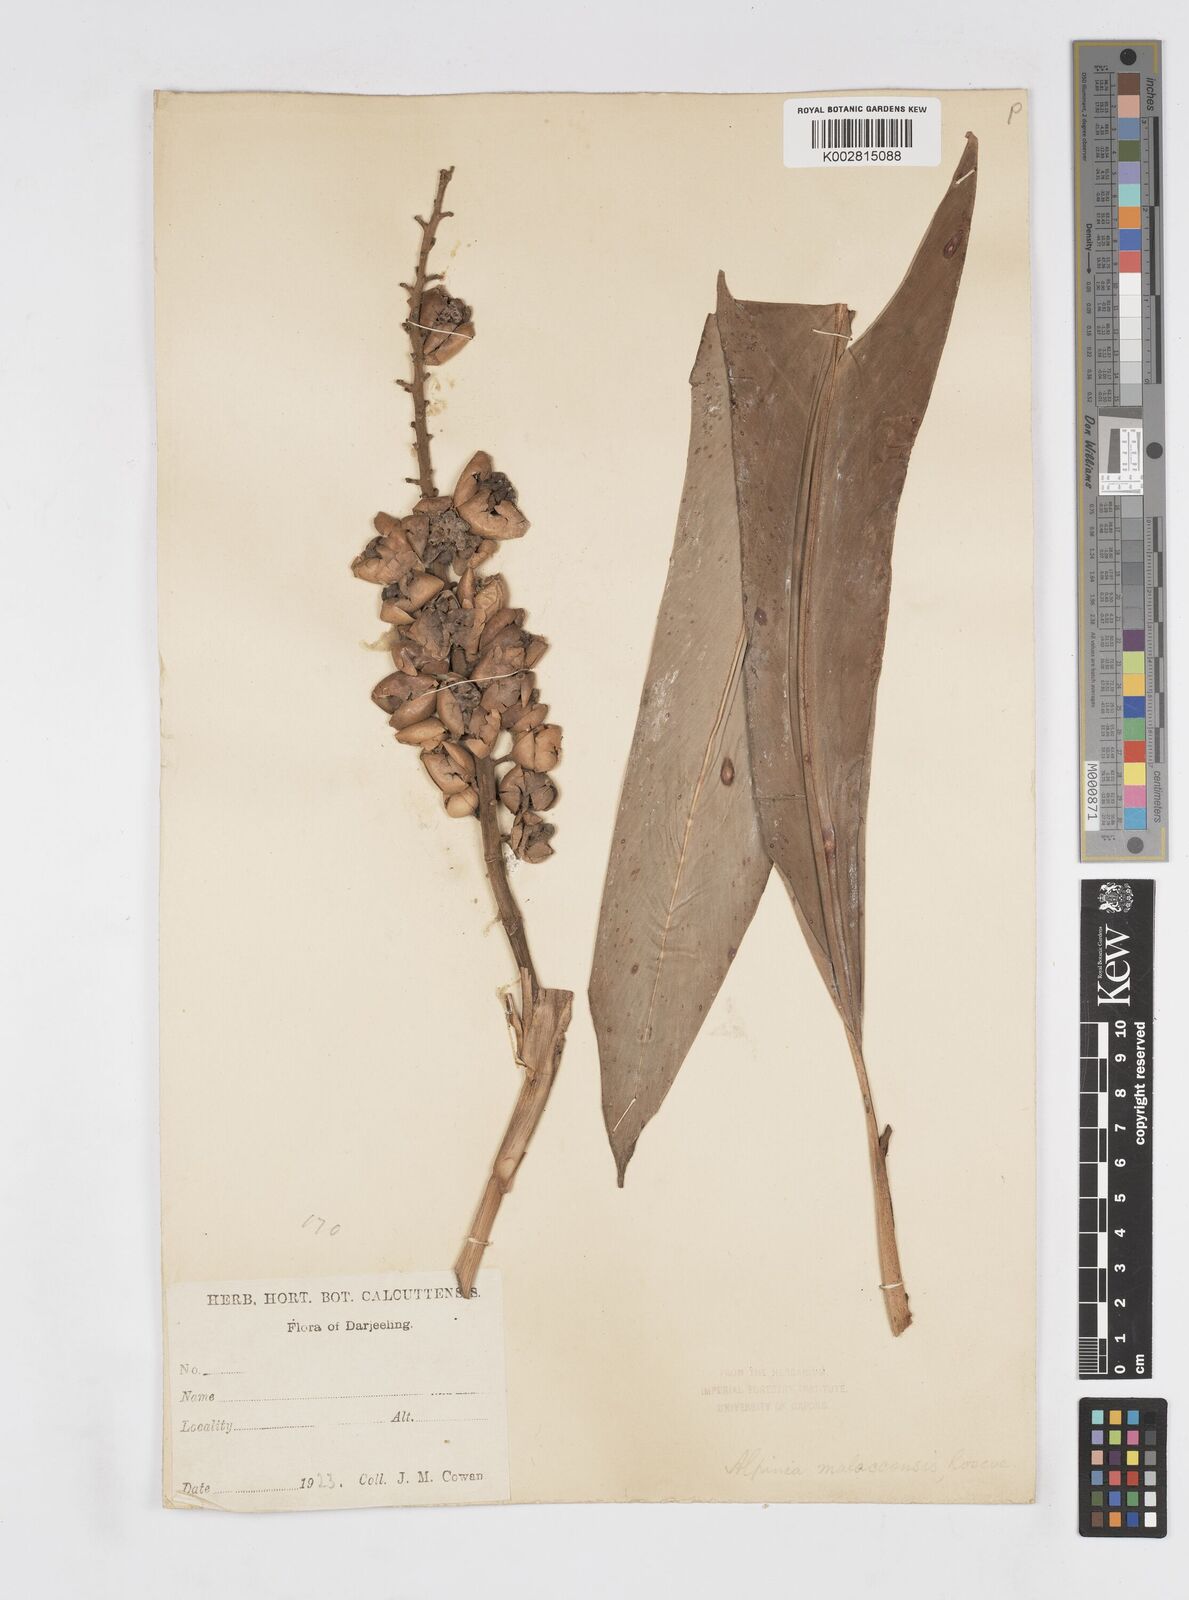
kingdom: Plantae
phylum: Tracheophyta
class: Liliopsida
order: Zingiberales
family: Zingiberaceae
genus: Alpinia
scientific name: Alpinia malaccensis
